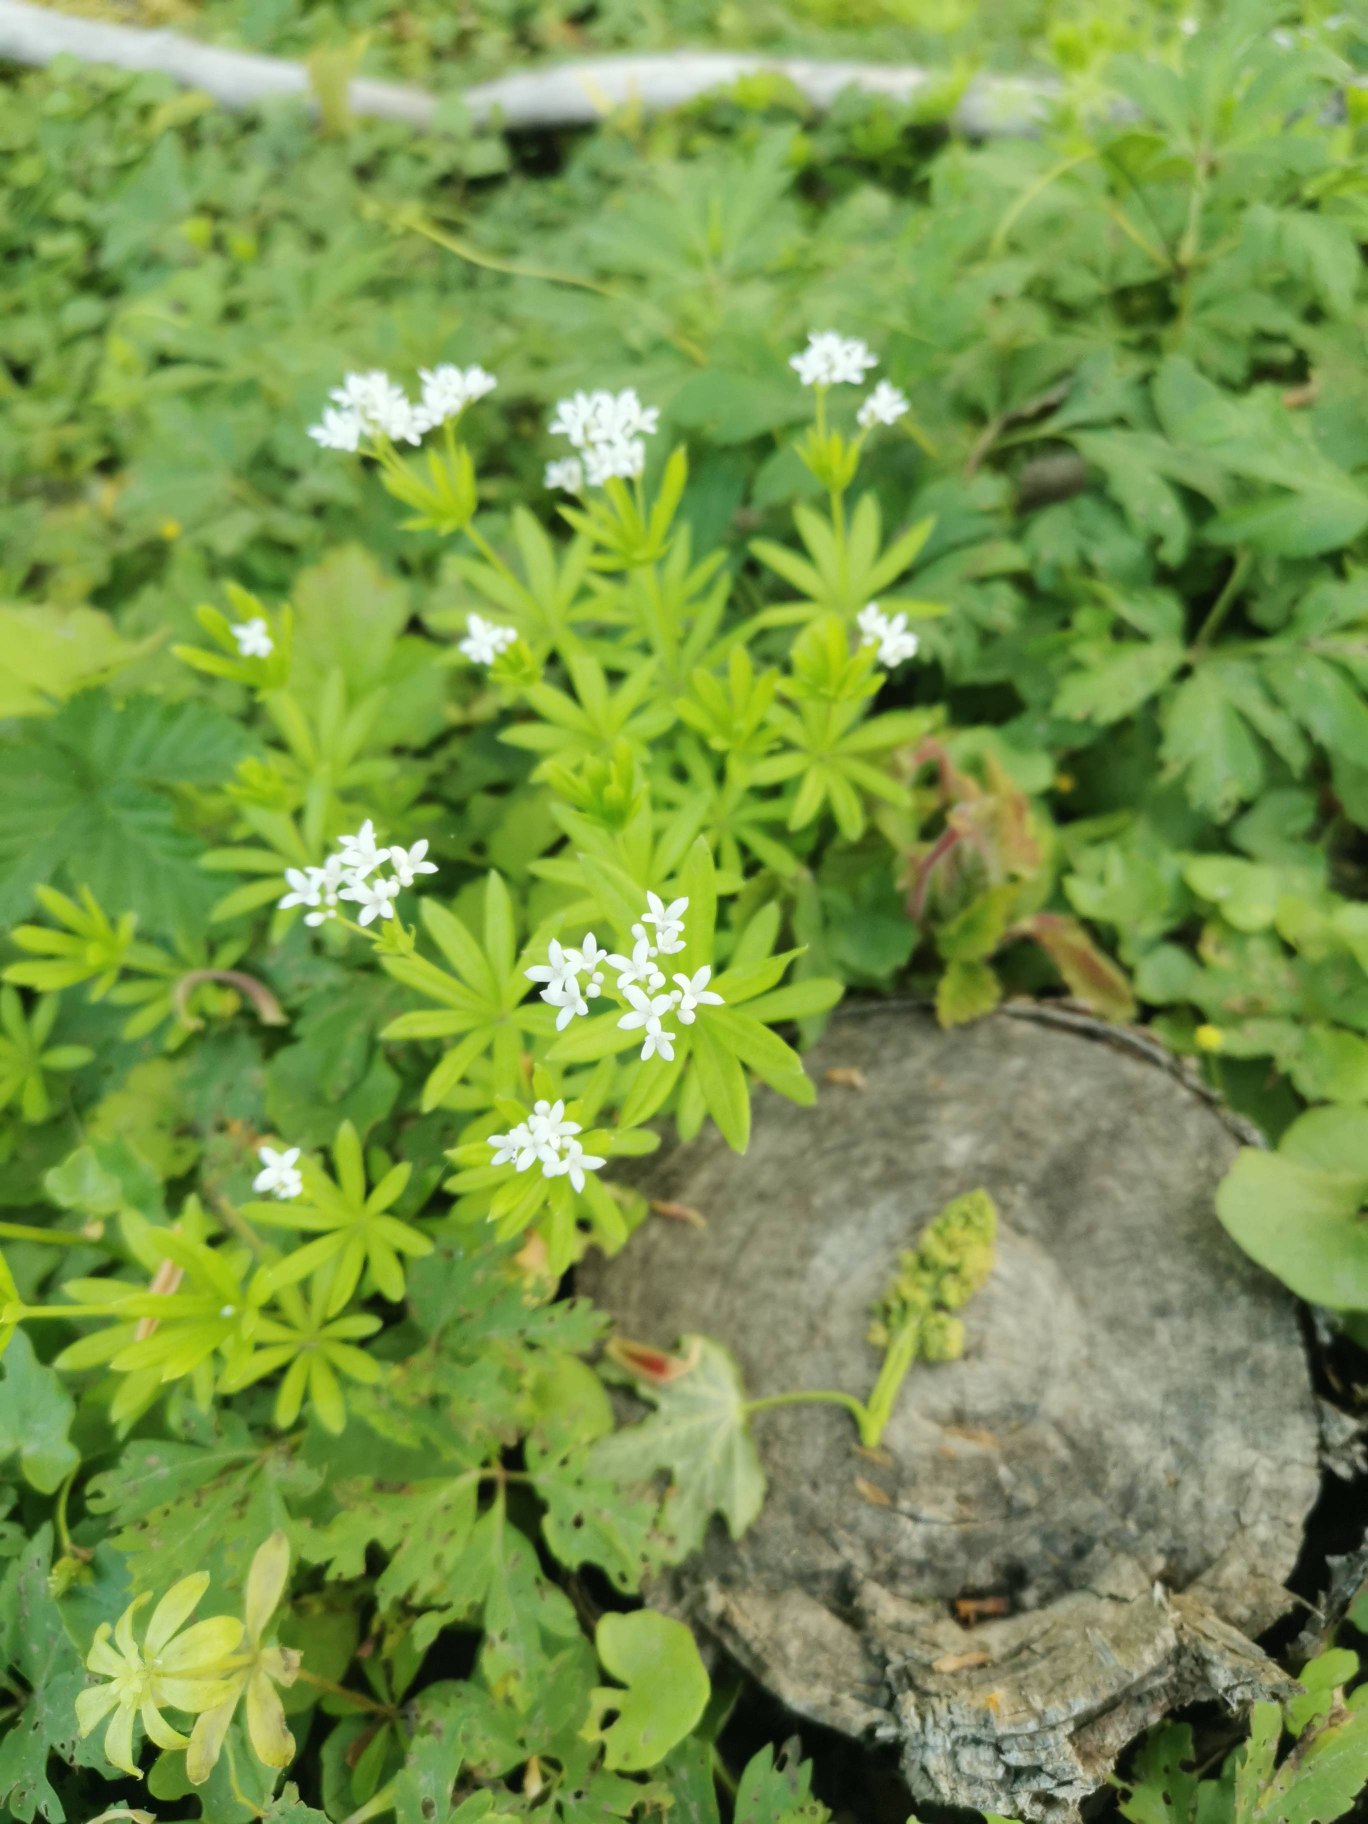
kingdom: Plantae
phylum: Tracheophyta
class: Magnoliopsida
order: Gentianales
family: Rubiaceae
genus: Galium
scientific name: Galium odoratum
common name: Skovmærke
